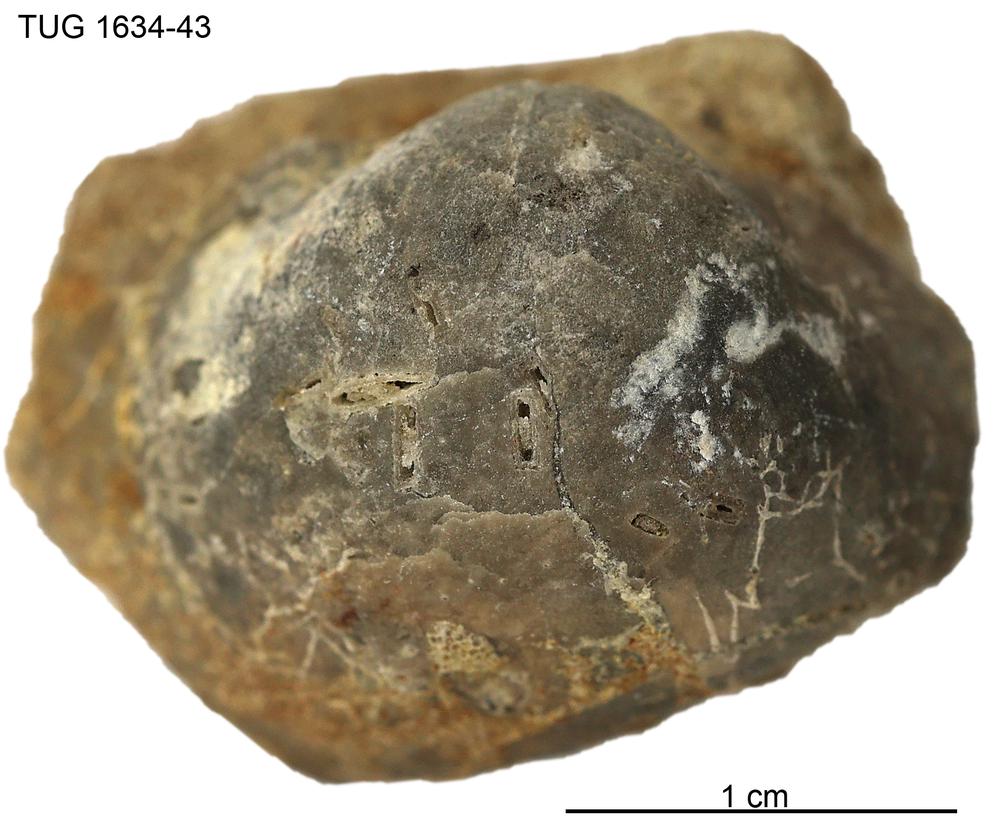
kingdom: Animalia
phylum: Brachiopoda
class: Rhynchonellata
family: Porambonitidae
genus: Porambonites
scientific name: Porambonites
